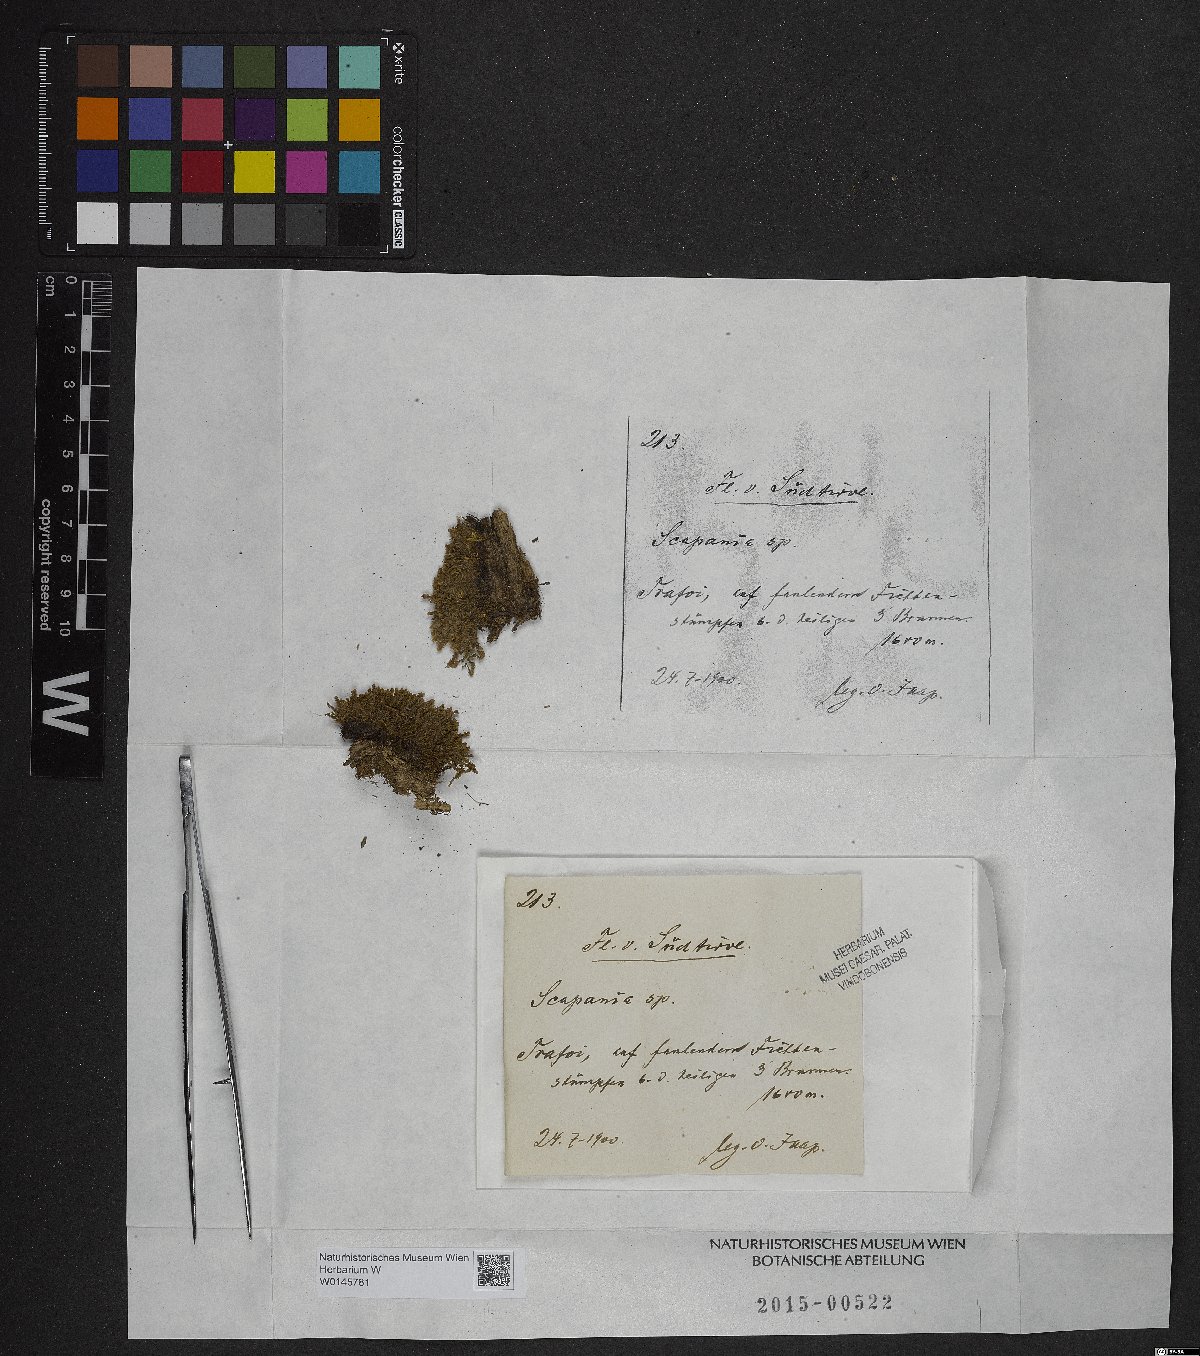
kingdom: Plantae
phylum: Marchantiophyta
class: Jungermanniopsida
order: Jungermanniales
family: Scapaniaceae
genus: Scapania
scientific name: Scapania
